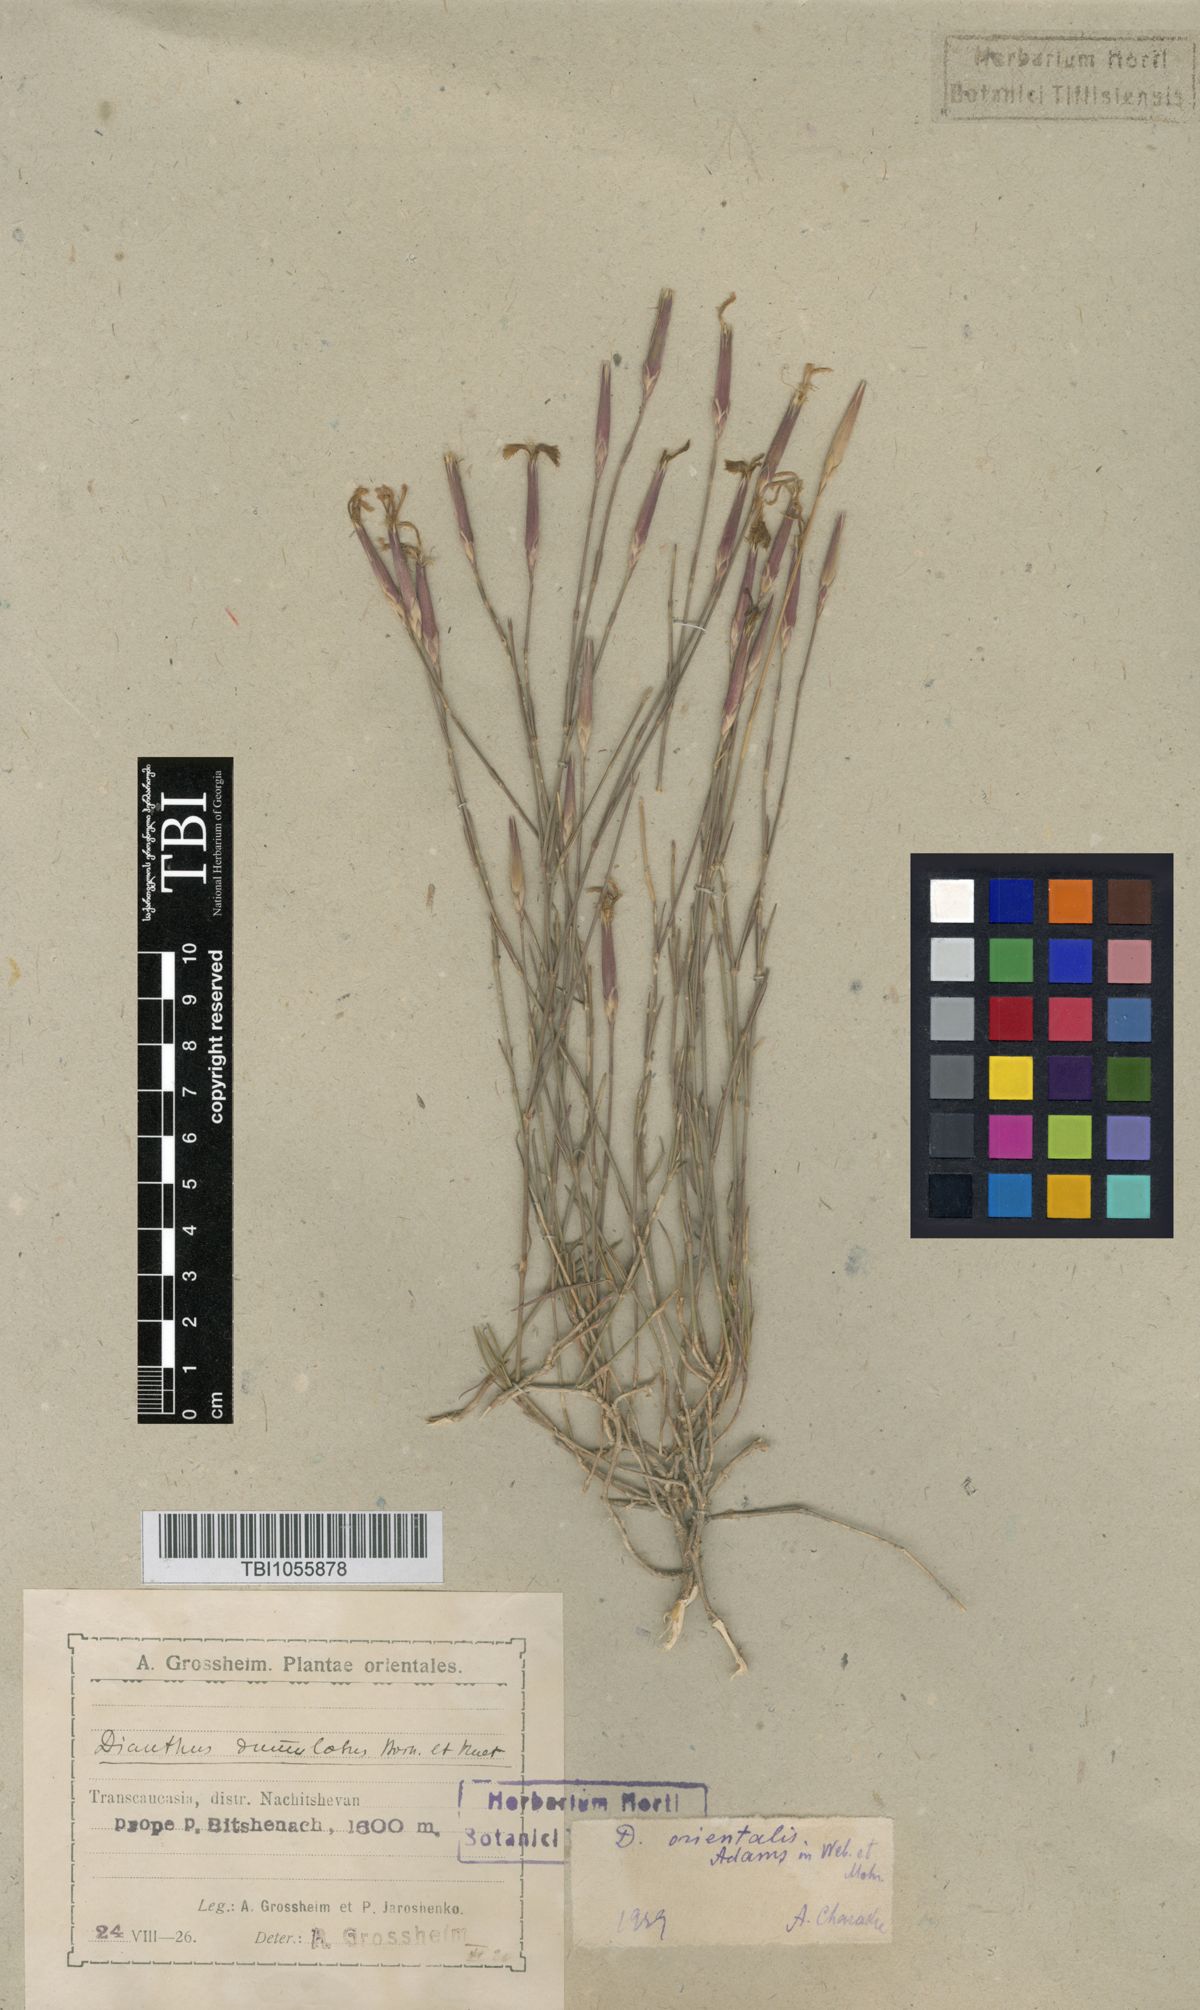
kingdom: Plantae
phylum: Tracheophyta
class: Magnoliopsida
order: Caryophyllales
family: Caryophyllaceae
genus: Dianthus
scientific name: Dianthus orientalis
